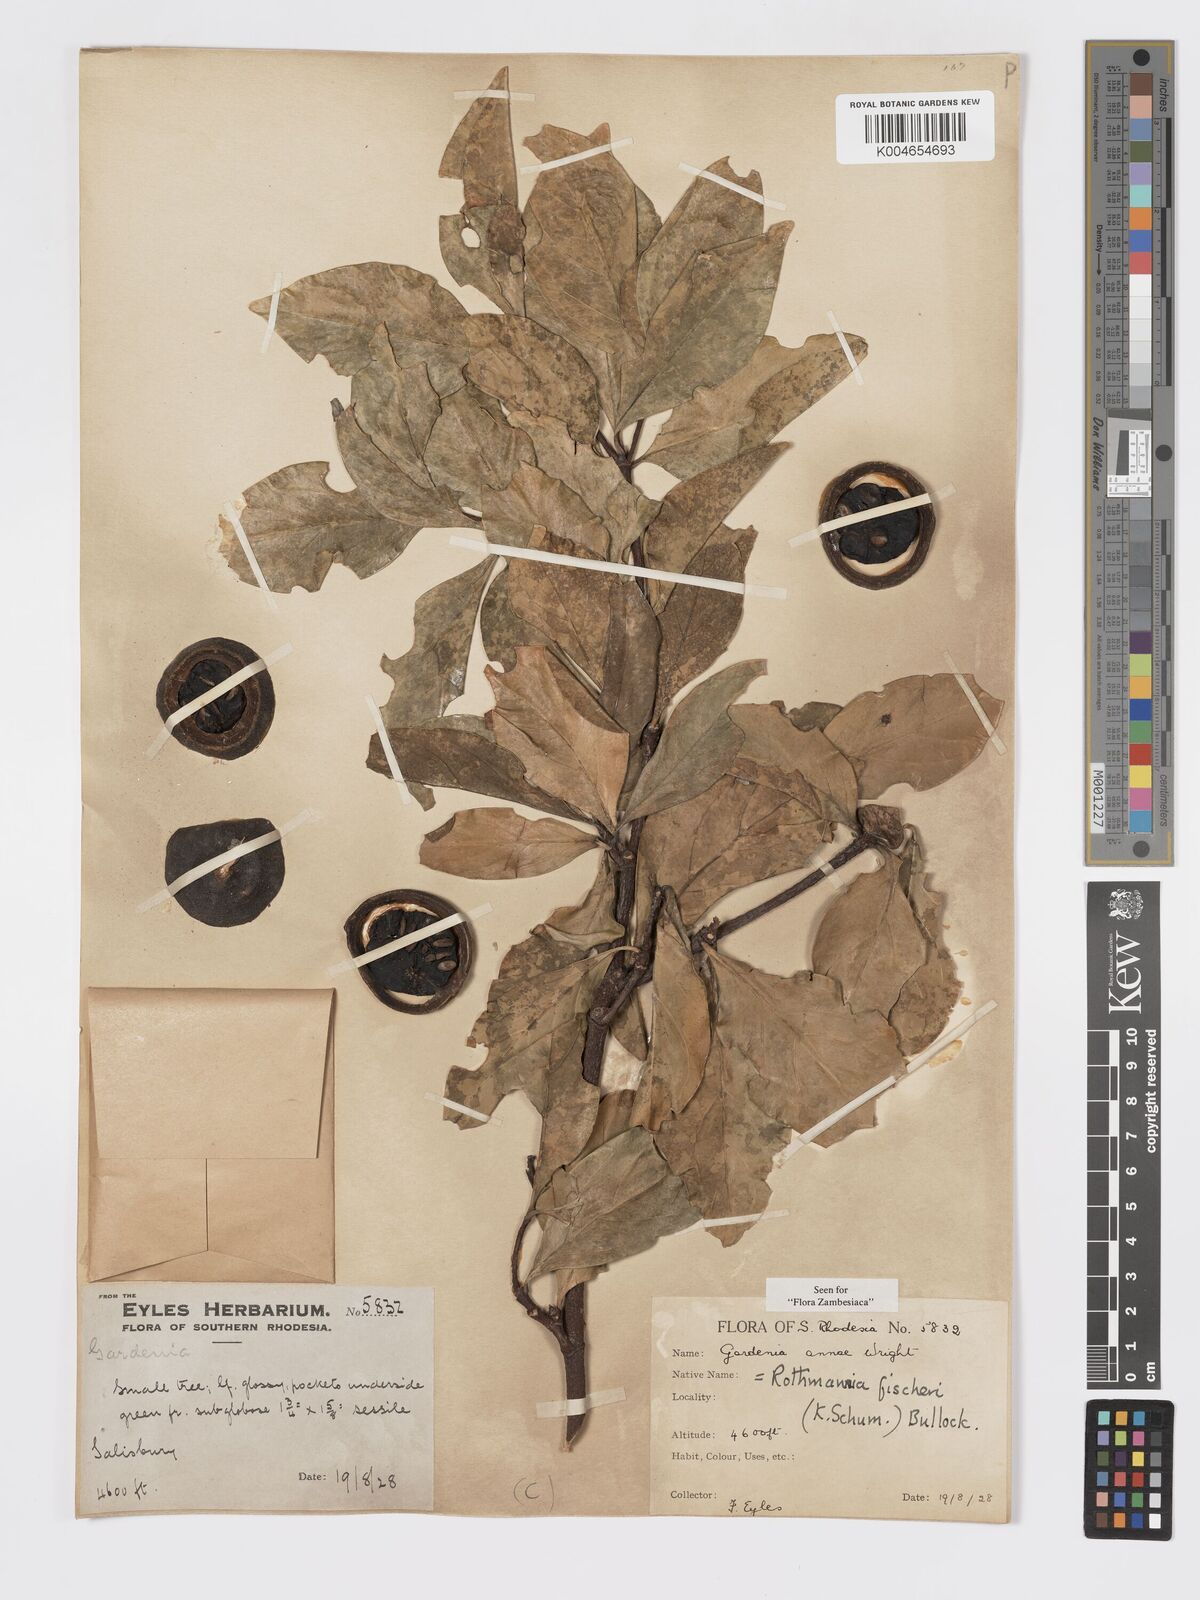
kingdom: Plantae
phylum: Tracheophyta
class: Magnoliopsida
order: Gentianales
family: Rubiaceae
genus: Rothmannia
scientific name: Rothmannia fischeri
